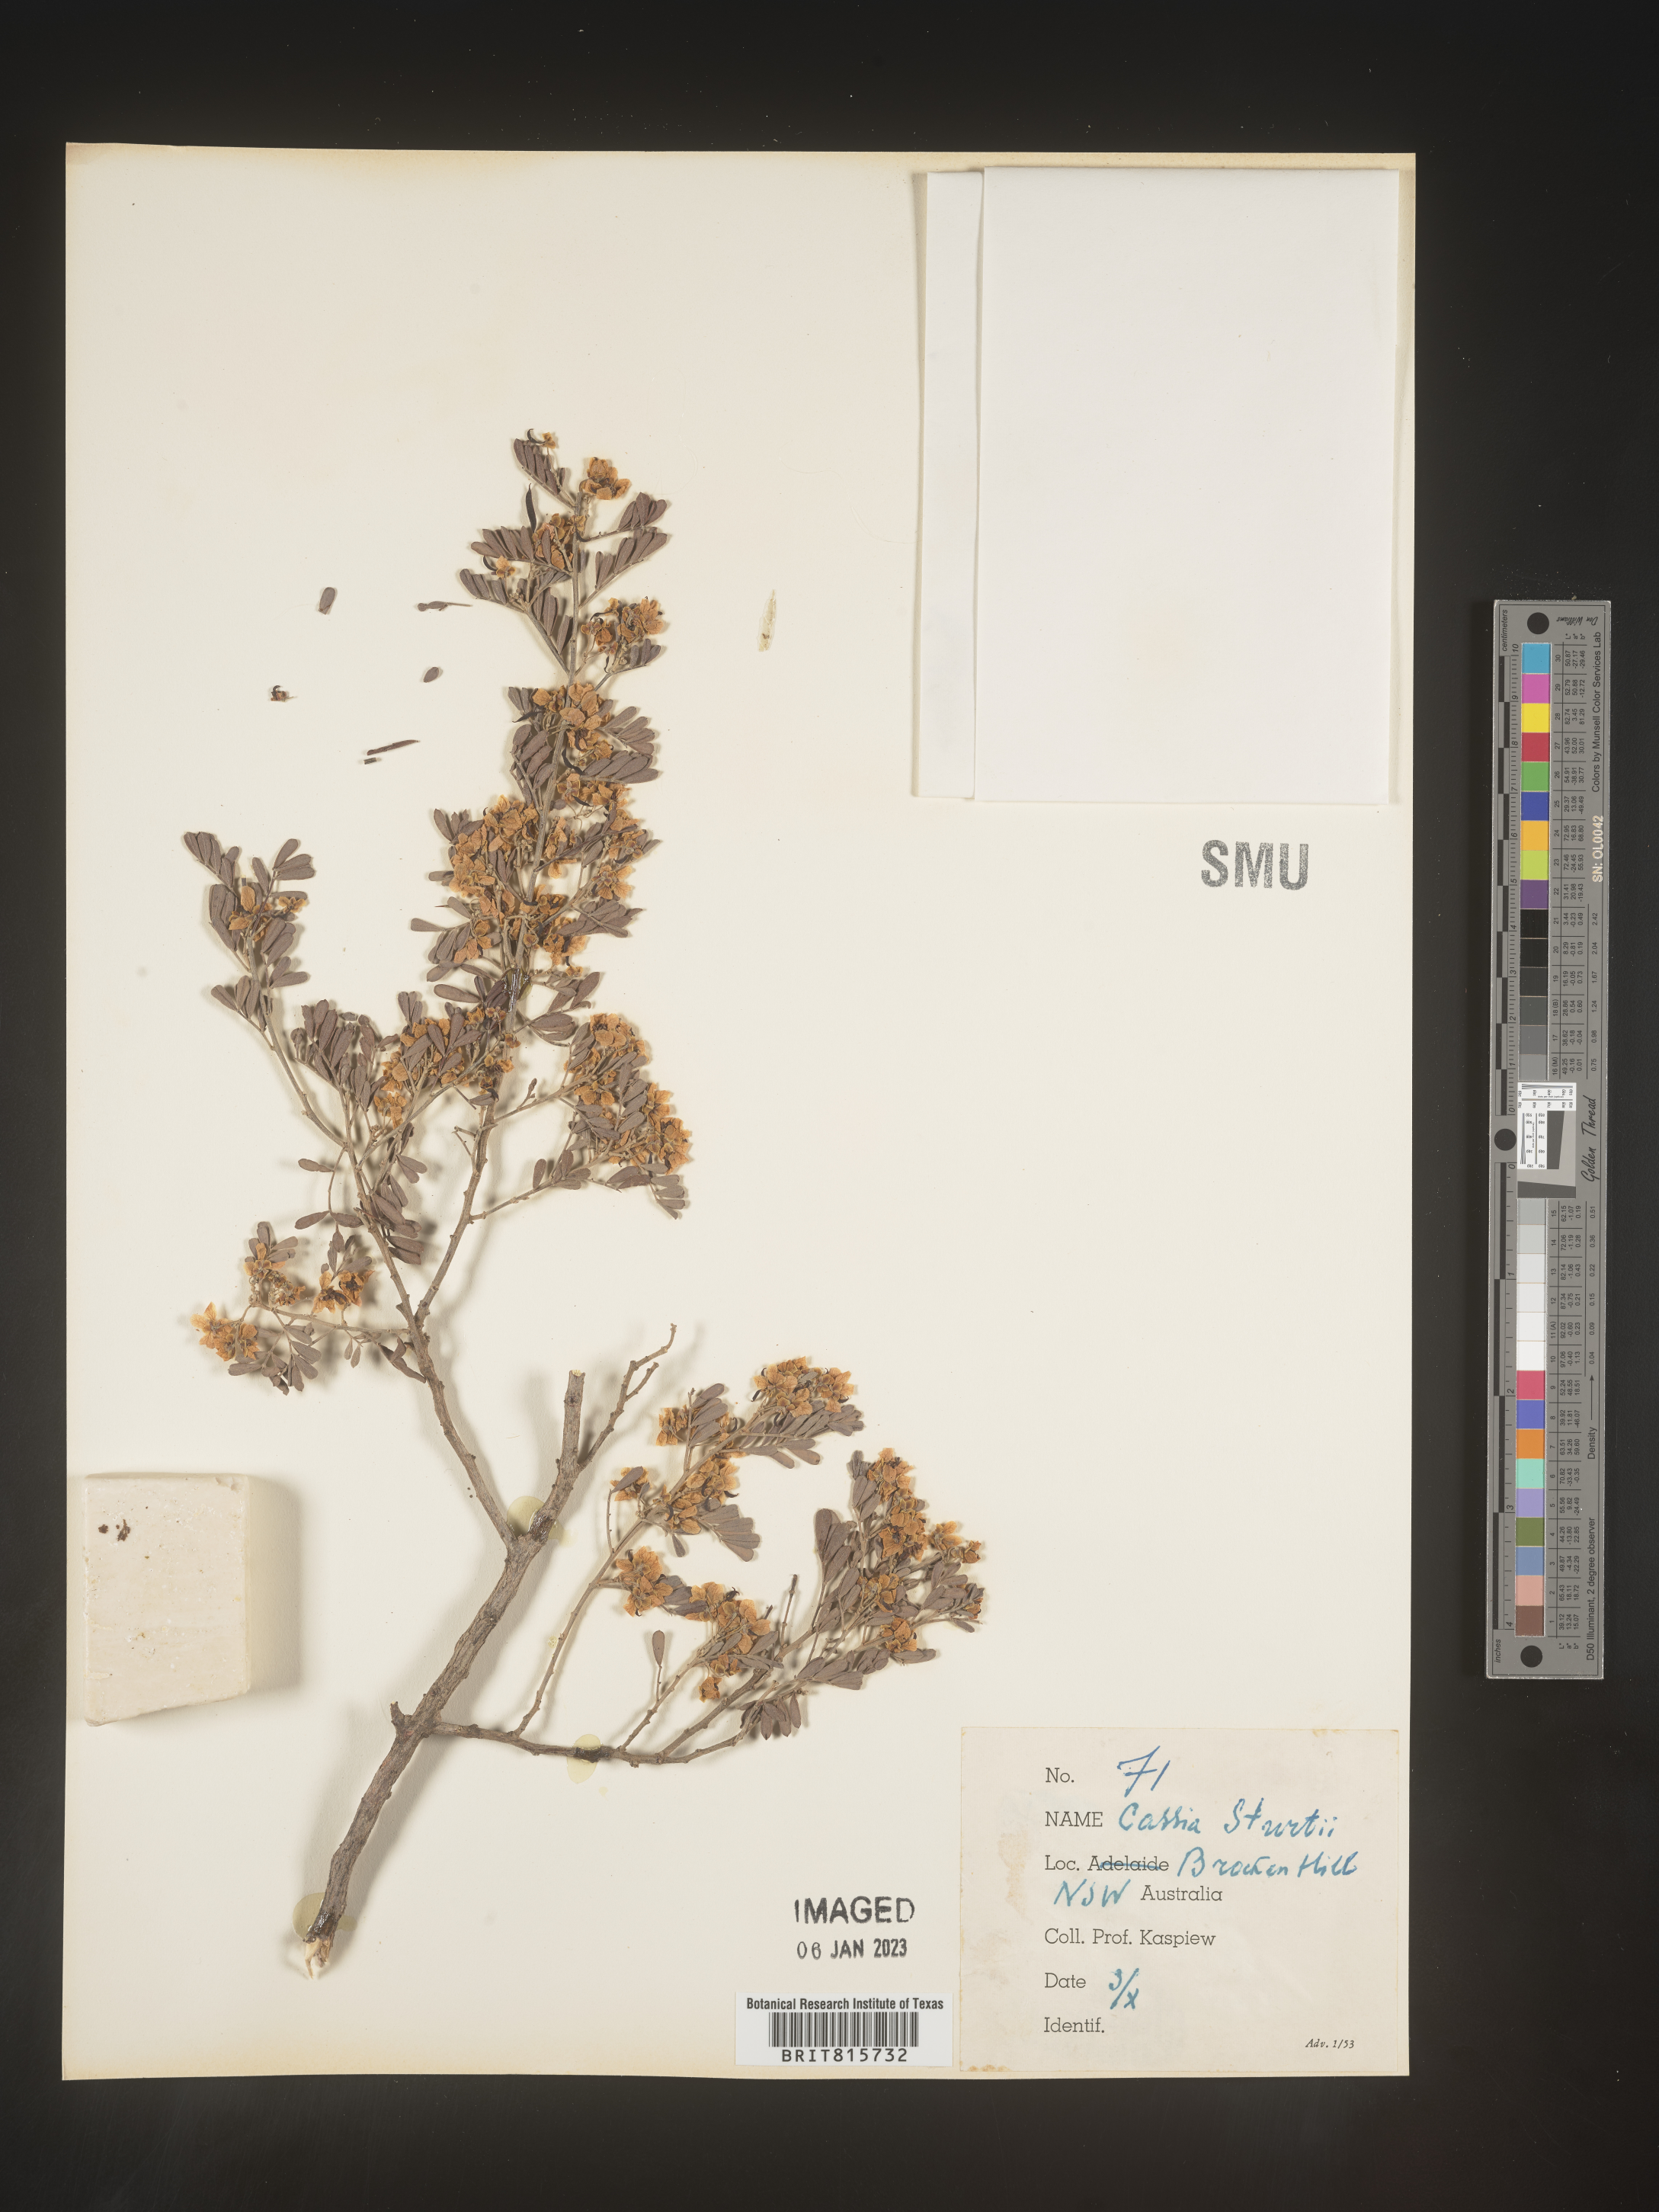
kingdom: Plantae
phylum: Tracheophyta
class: Magnoliopsida
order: Fabales
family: Fabaceae
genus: Cassia
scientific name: Cassia
